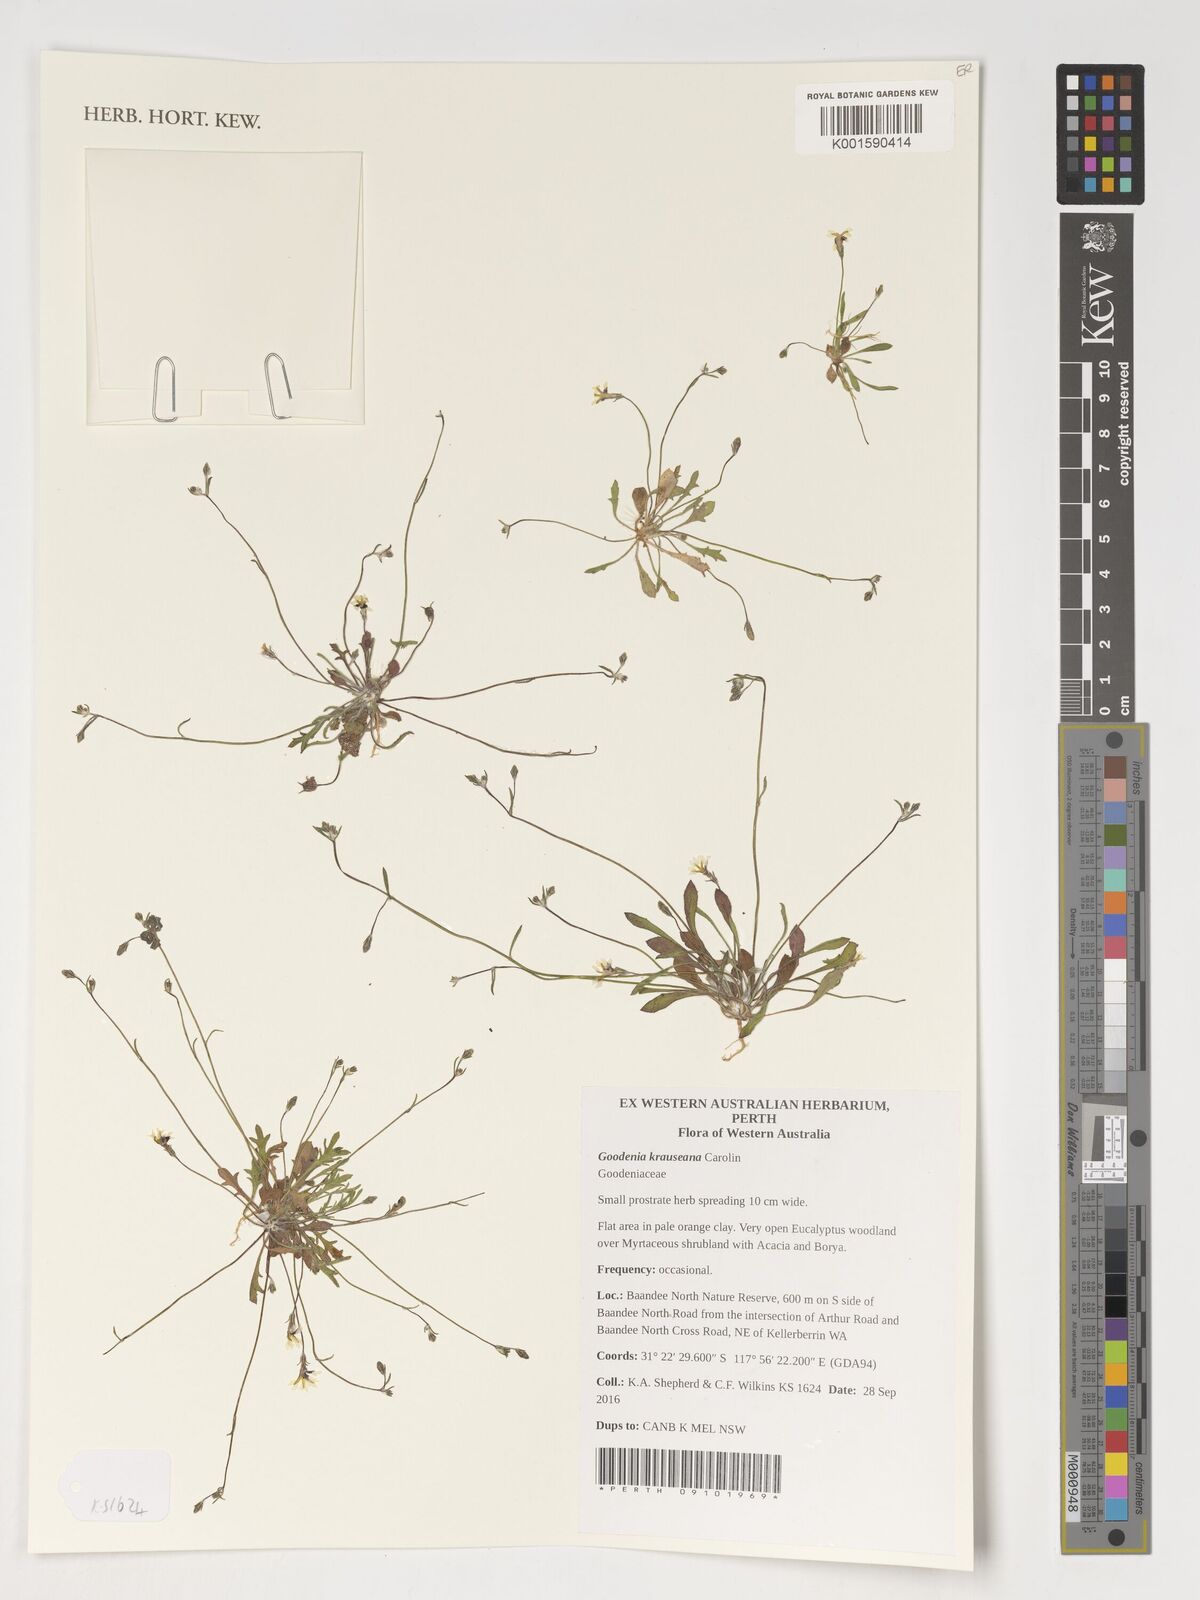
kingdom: Plantae
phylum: Tracheophyta
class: Magnoliopsida
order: Asterales
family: Goodeniaceae
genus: Goodenia
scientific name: Goodenia krauseana
